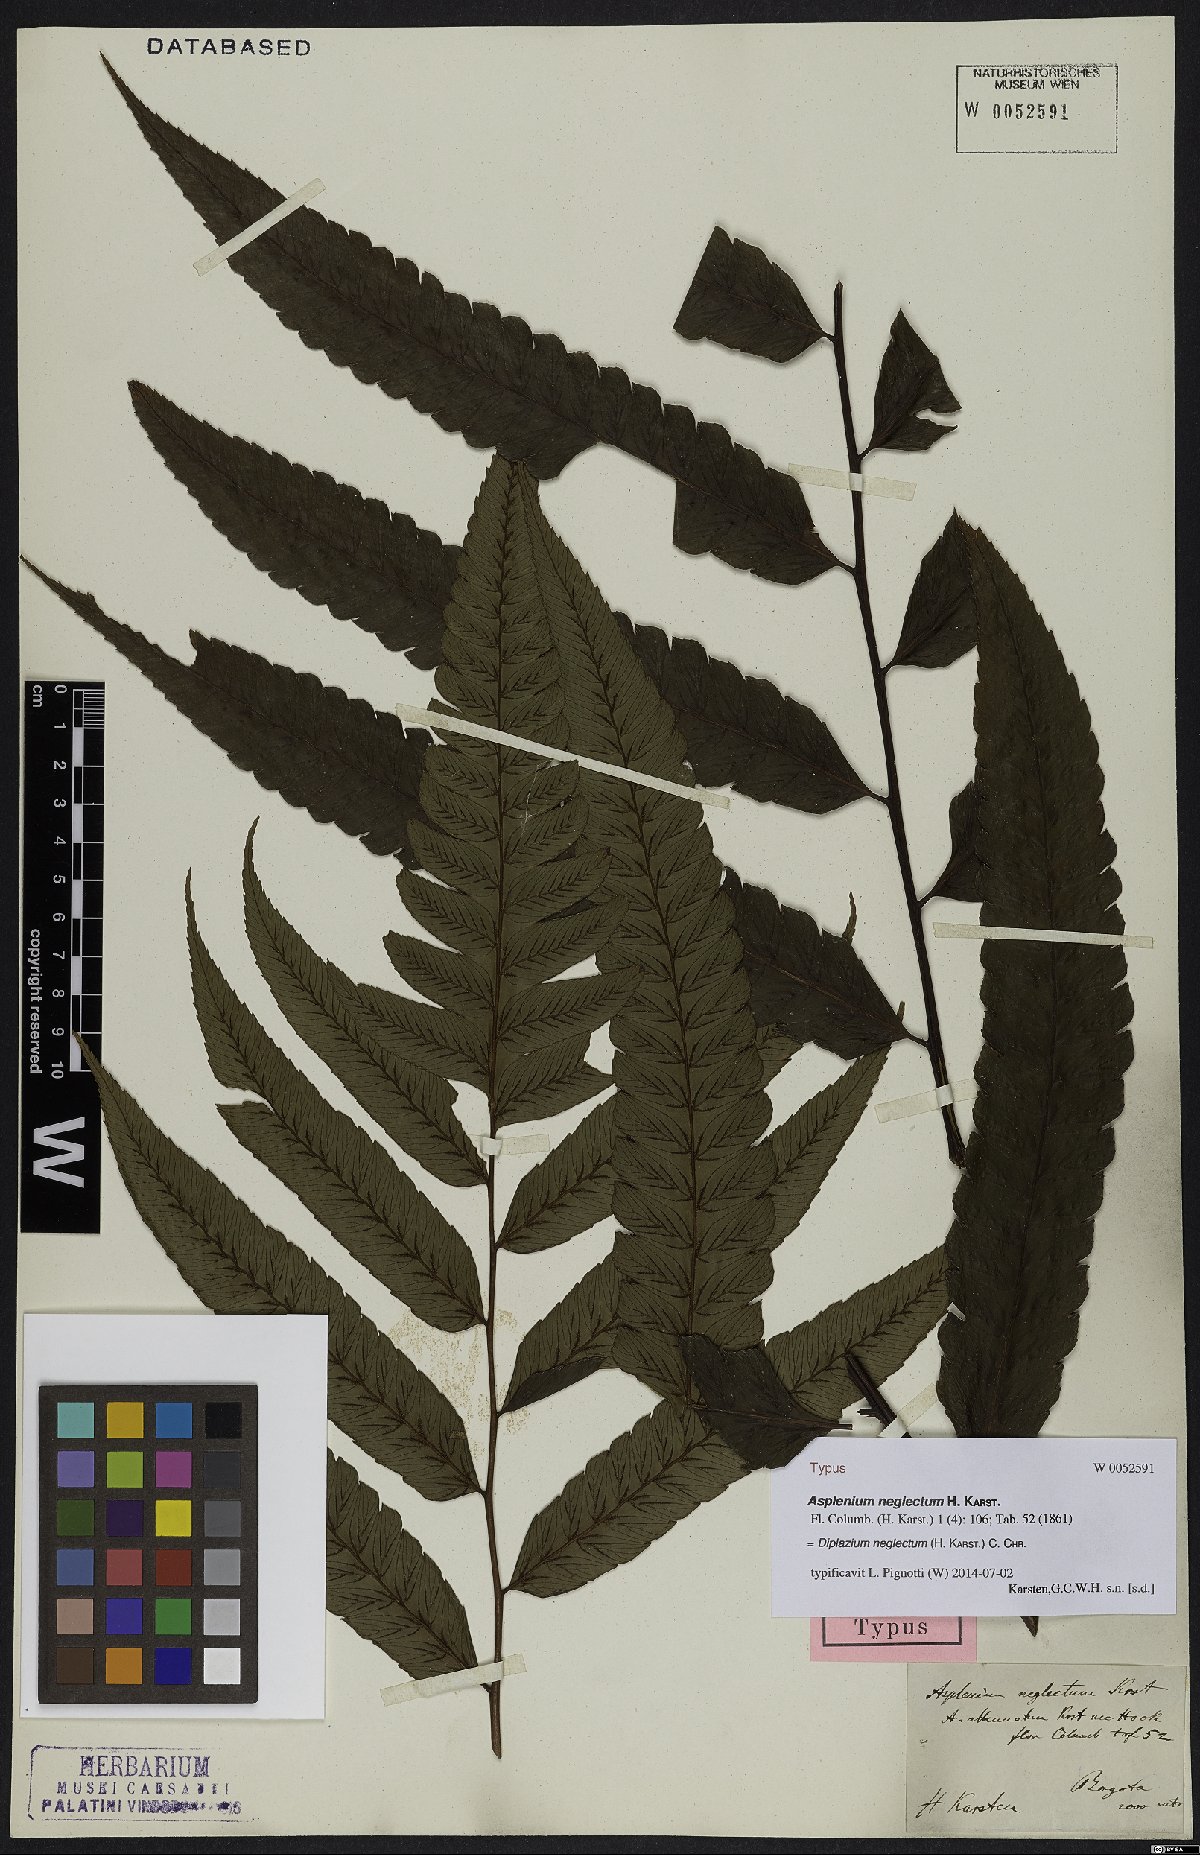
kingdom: Plantae
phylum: Tracheophyta
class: Polypodiopsida
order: Polypodiales
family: Athyriaceae
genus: Diplazium
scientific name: Diplazium neglectum
